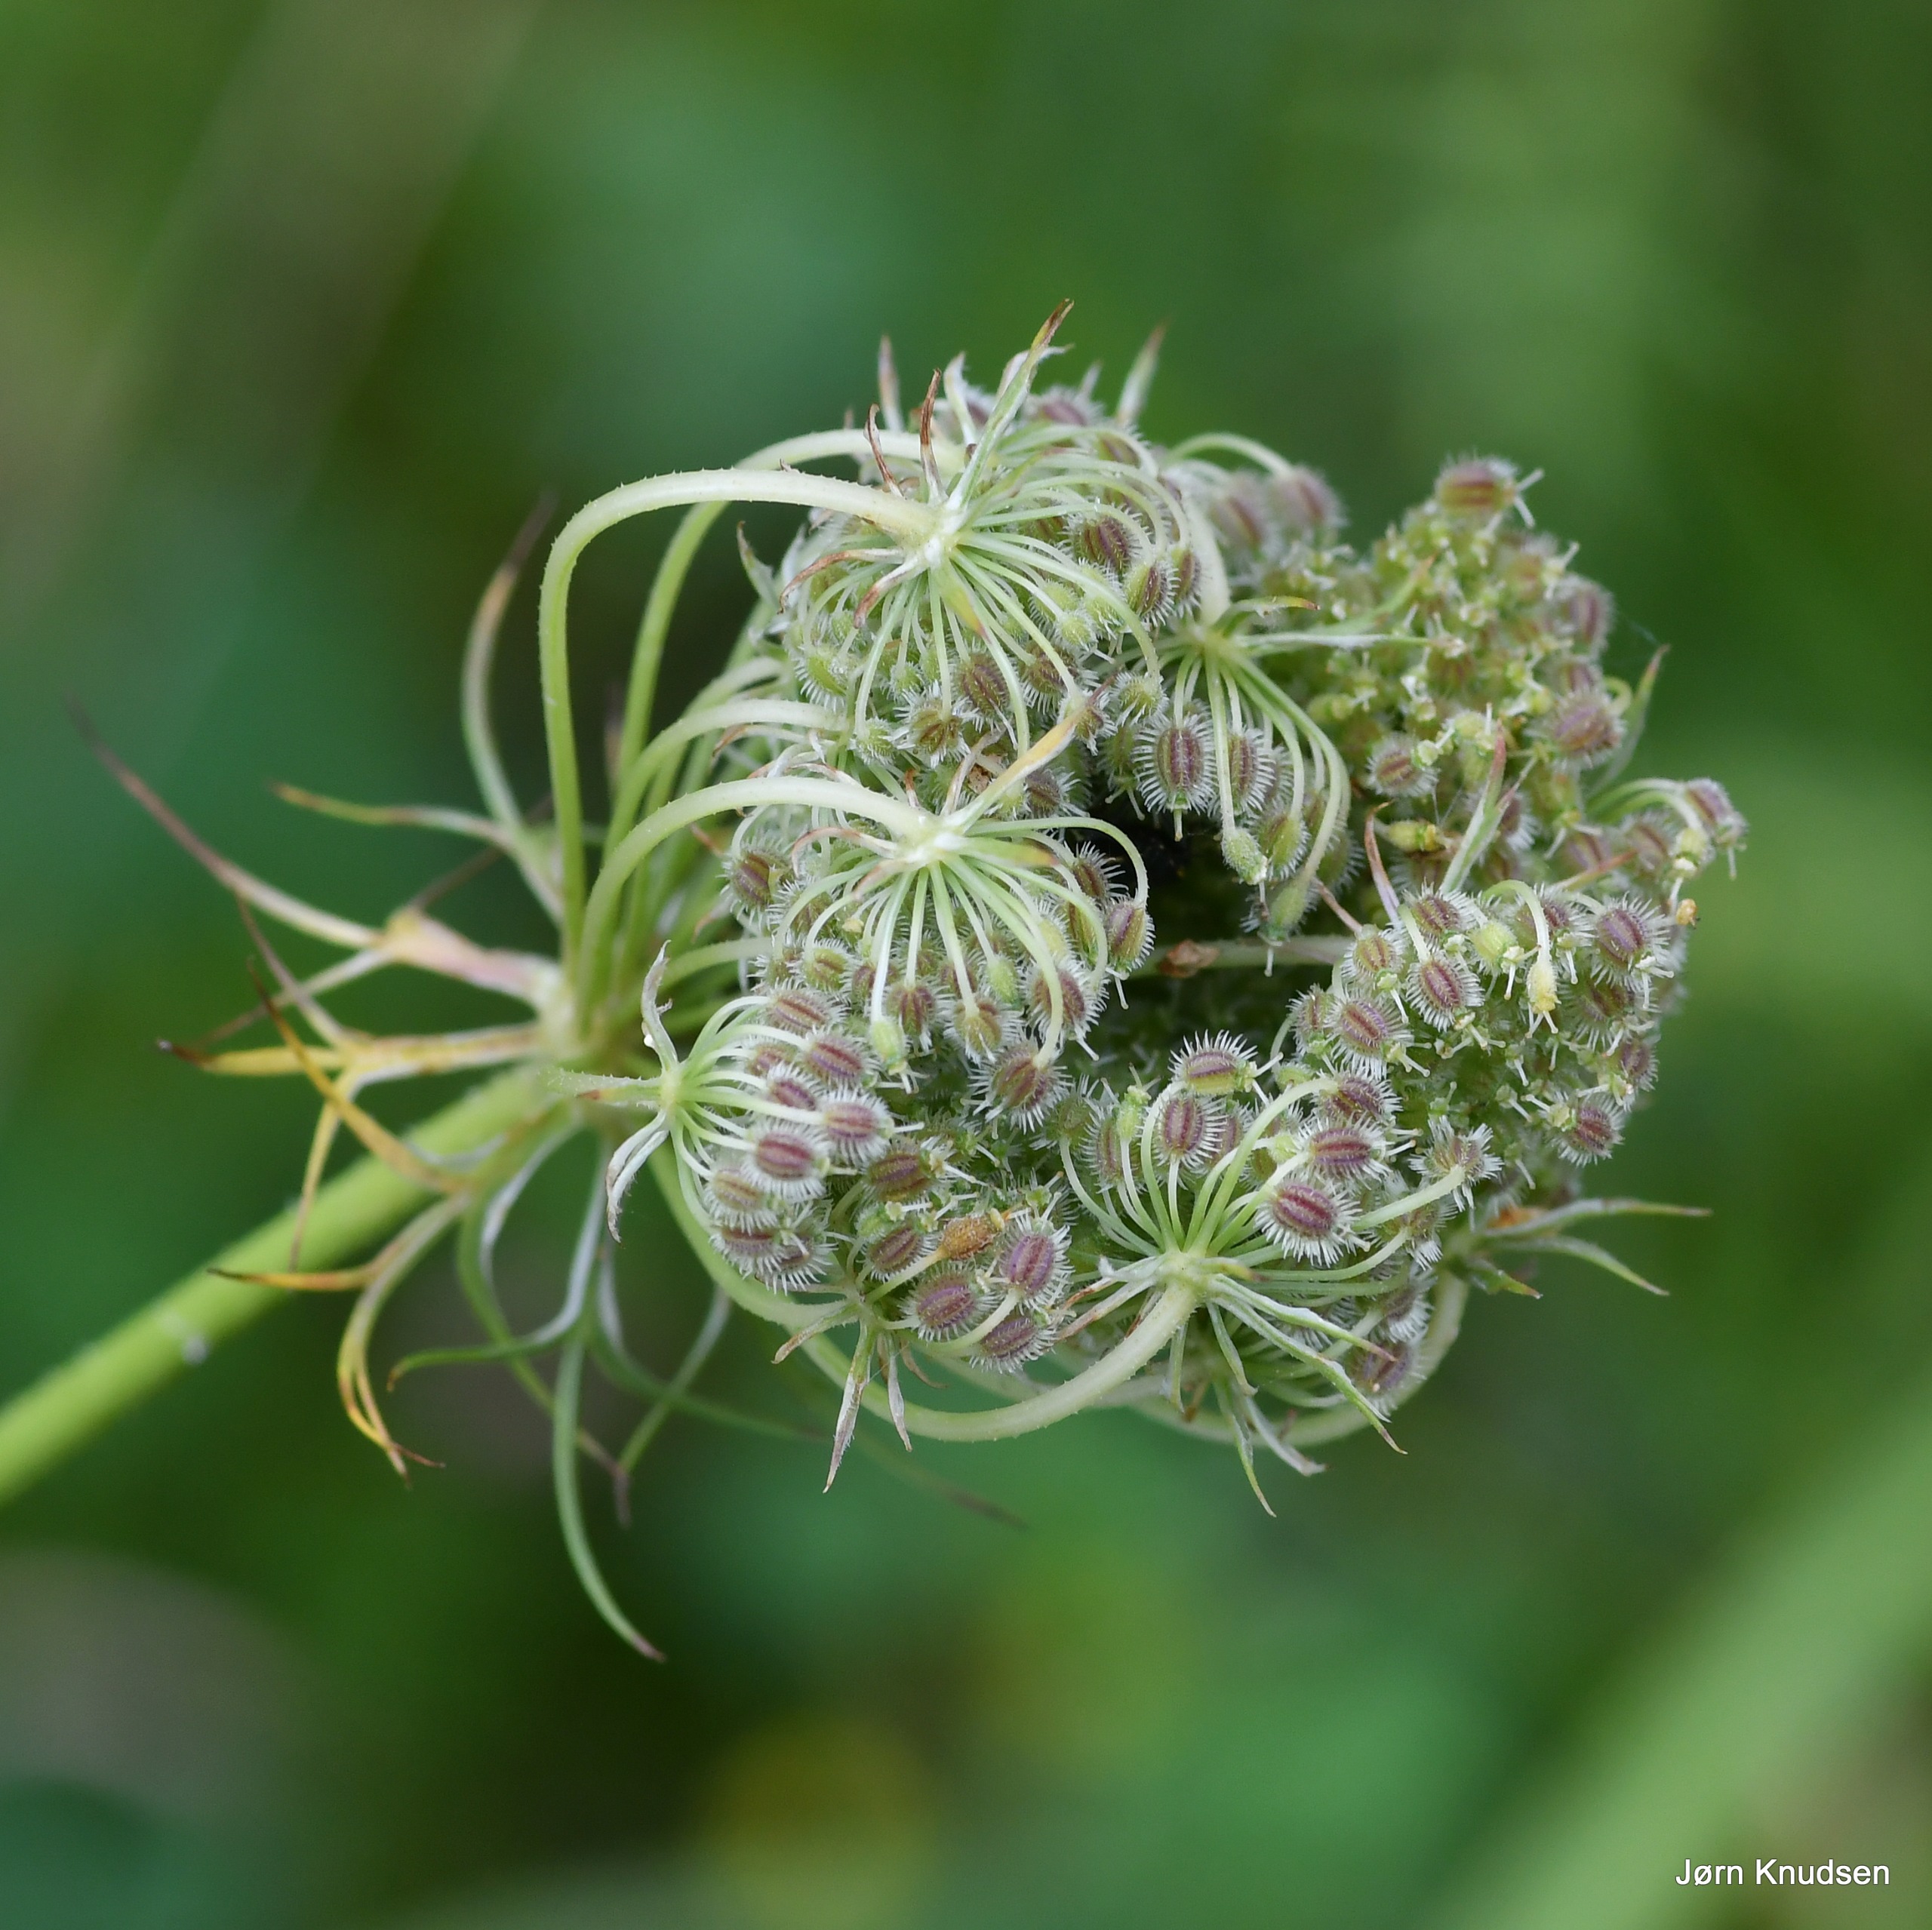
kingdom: Plantae
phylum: Tracheophyta
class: Magnoliopsida
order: Apiales
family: Apiaceae
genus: Daucus
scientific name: Daucus carota
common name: Gulerod
